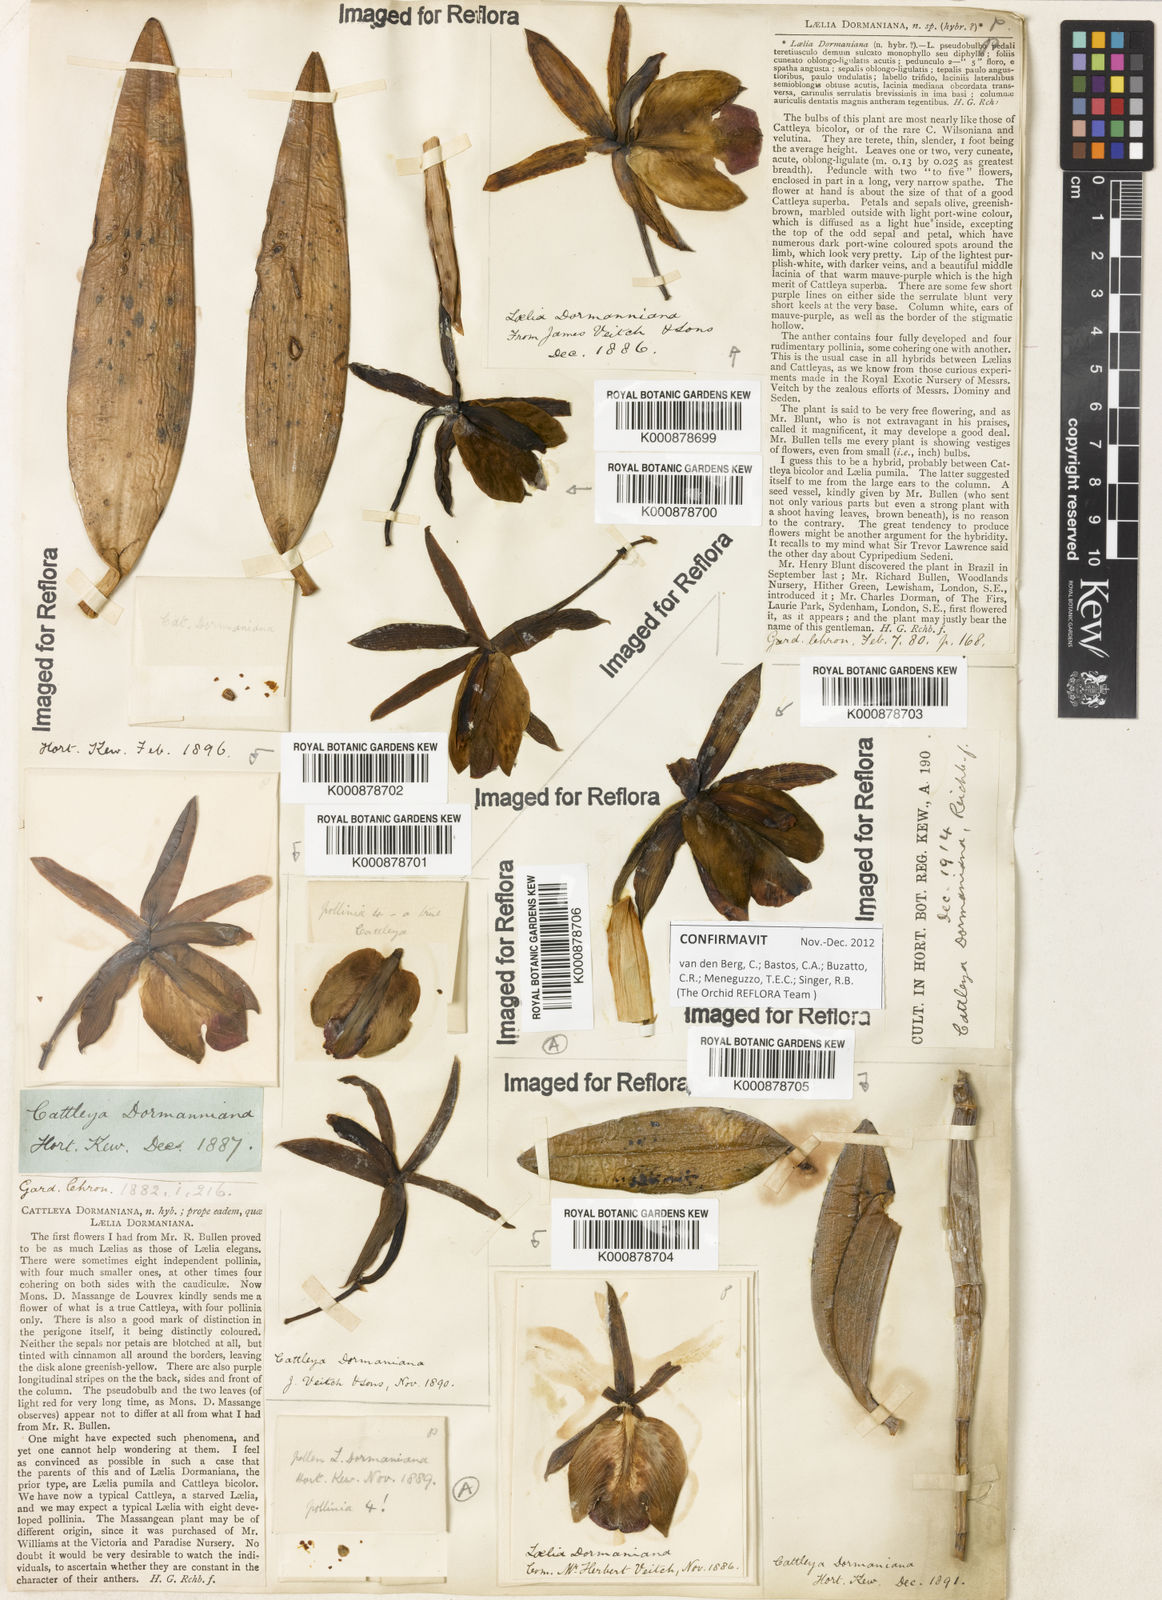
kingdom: Plantae
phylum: Tracheophyta
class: Liliopsida
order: Asparagales
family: Orchidaceae
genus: Cattleya
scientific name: Cattleya dormaniana
